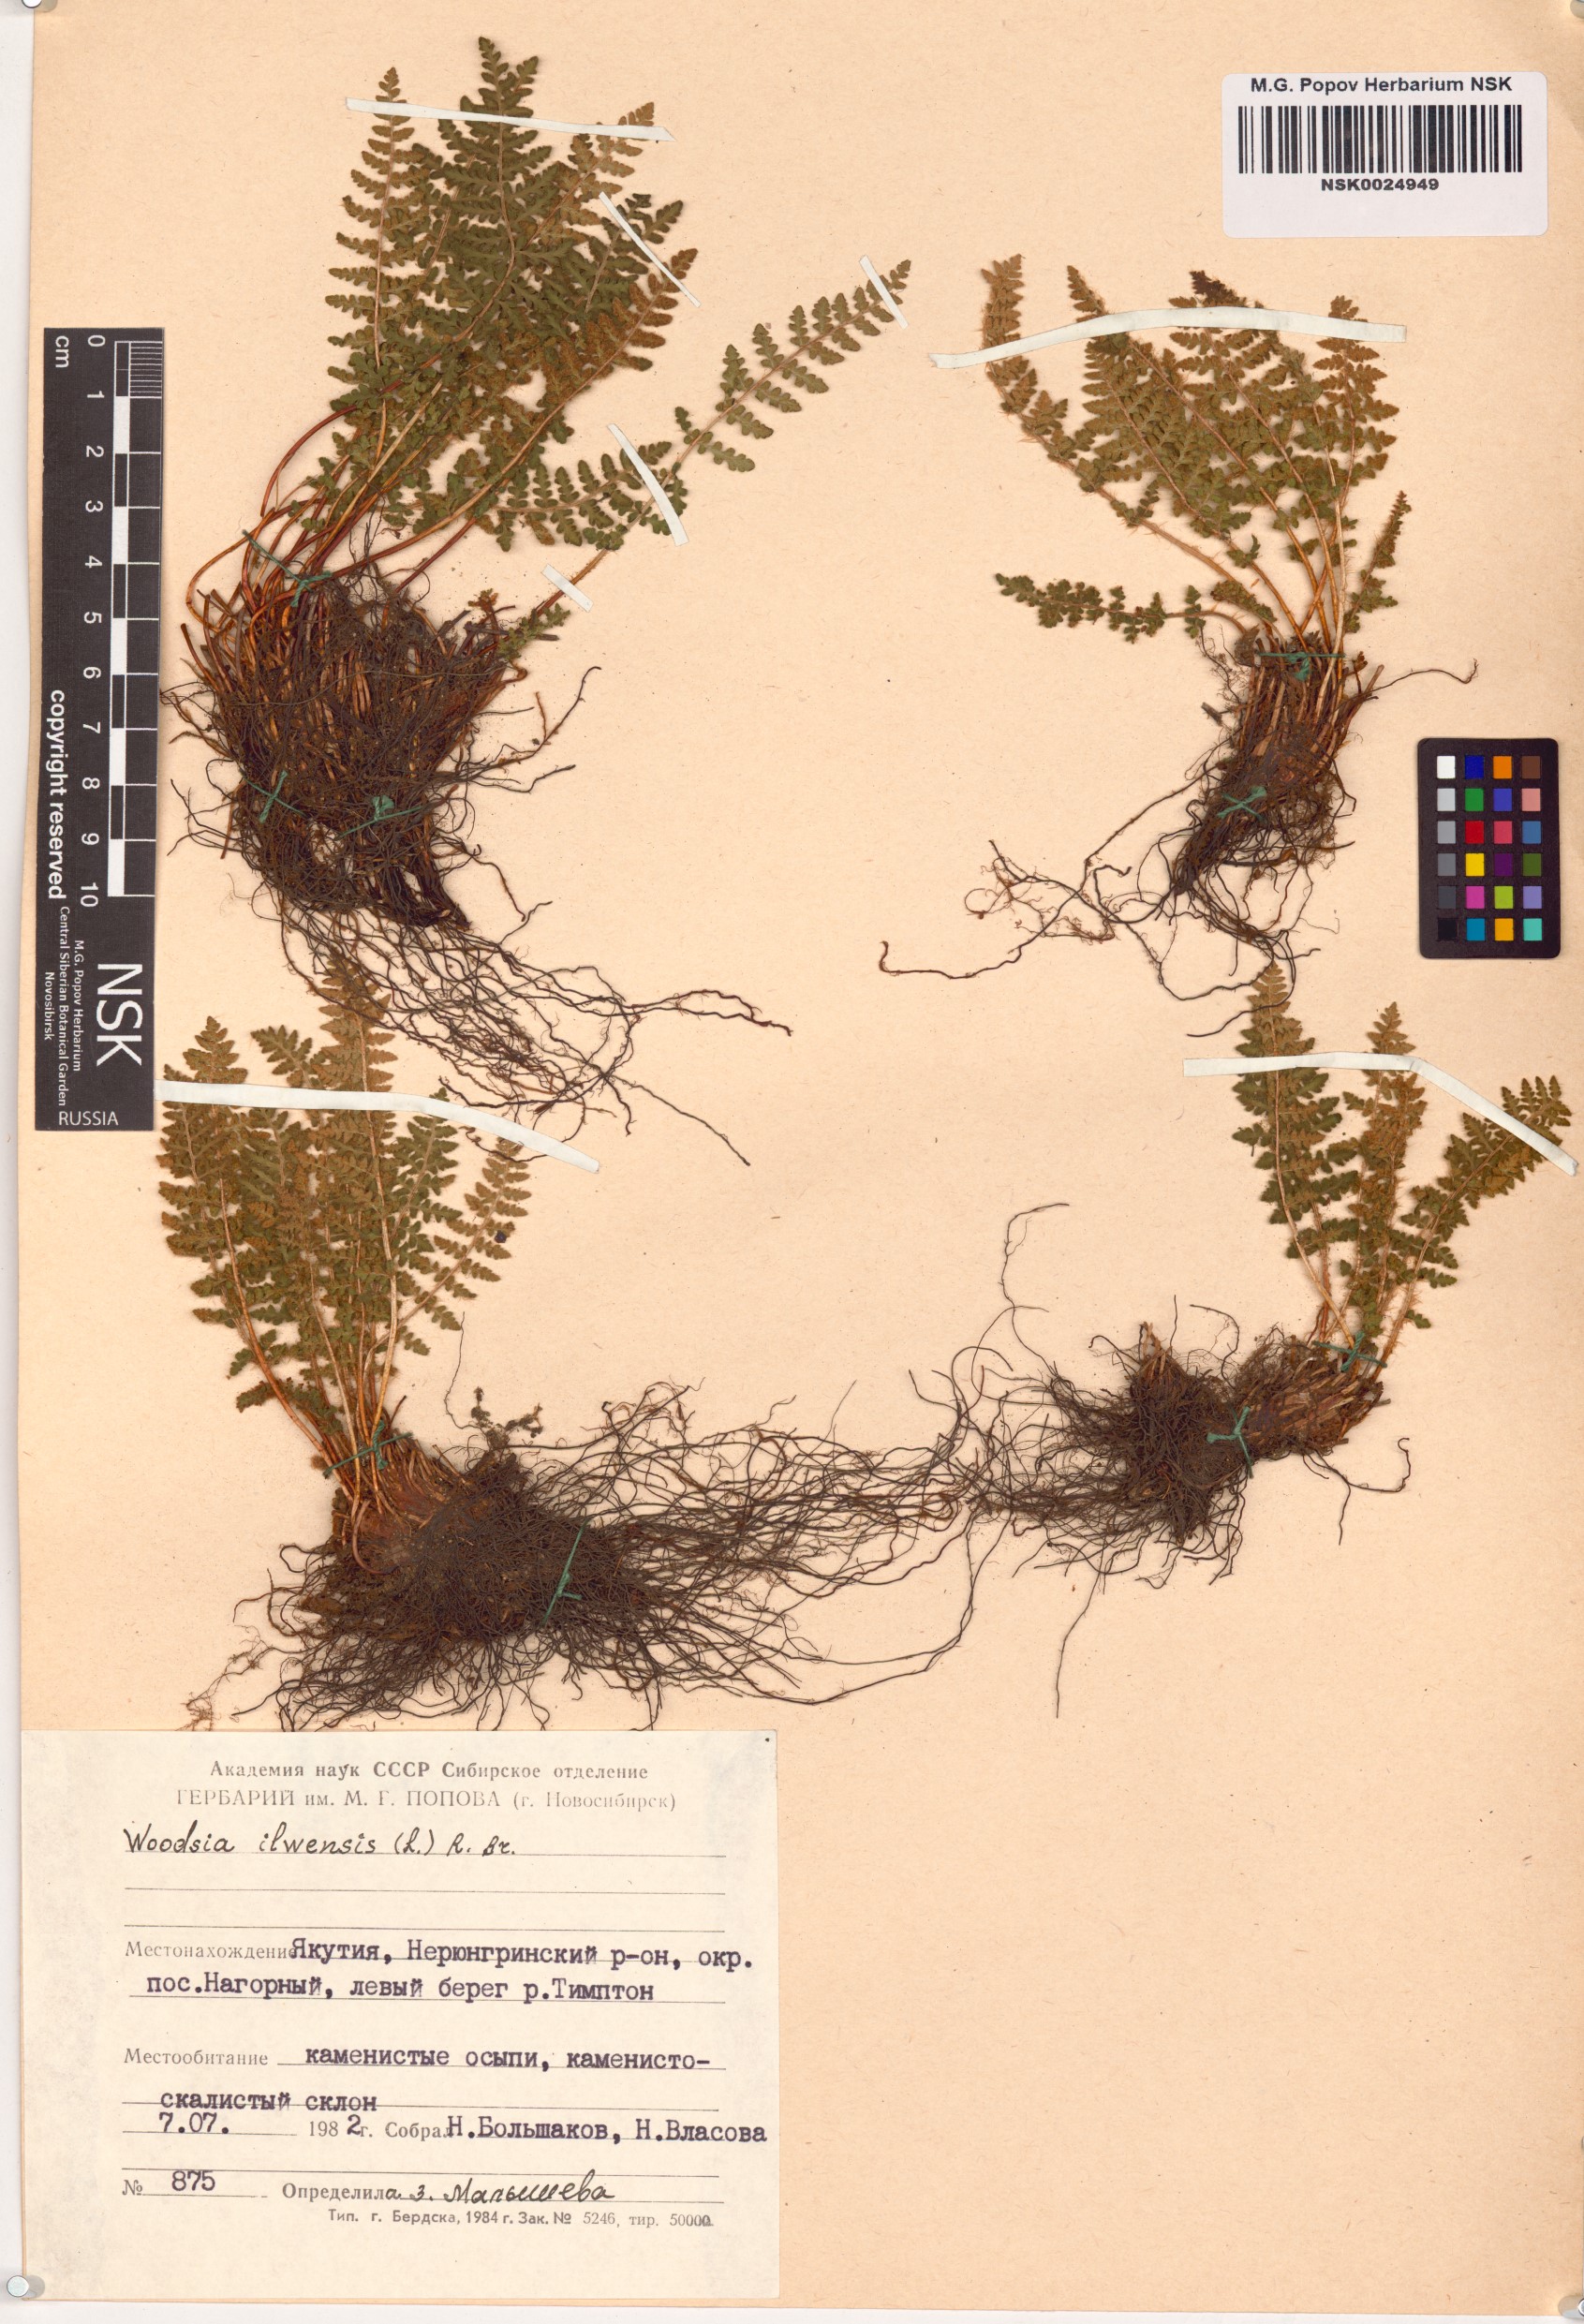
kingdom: Plantae
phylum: Tracheophyta
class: Polypodiopsida
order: Polypodiales
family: Woodsiaceae
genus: Woodsia
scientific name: Woodsia ilvensis
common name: Fragrant woodsia
